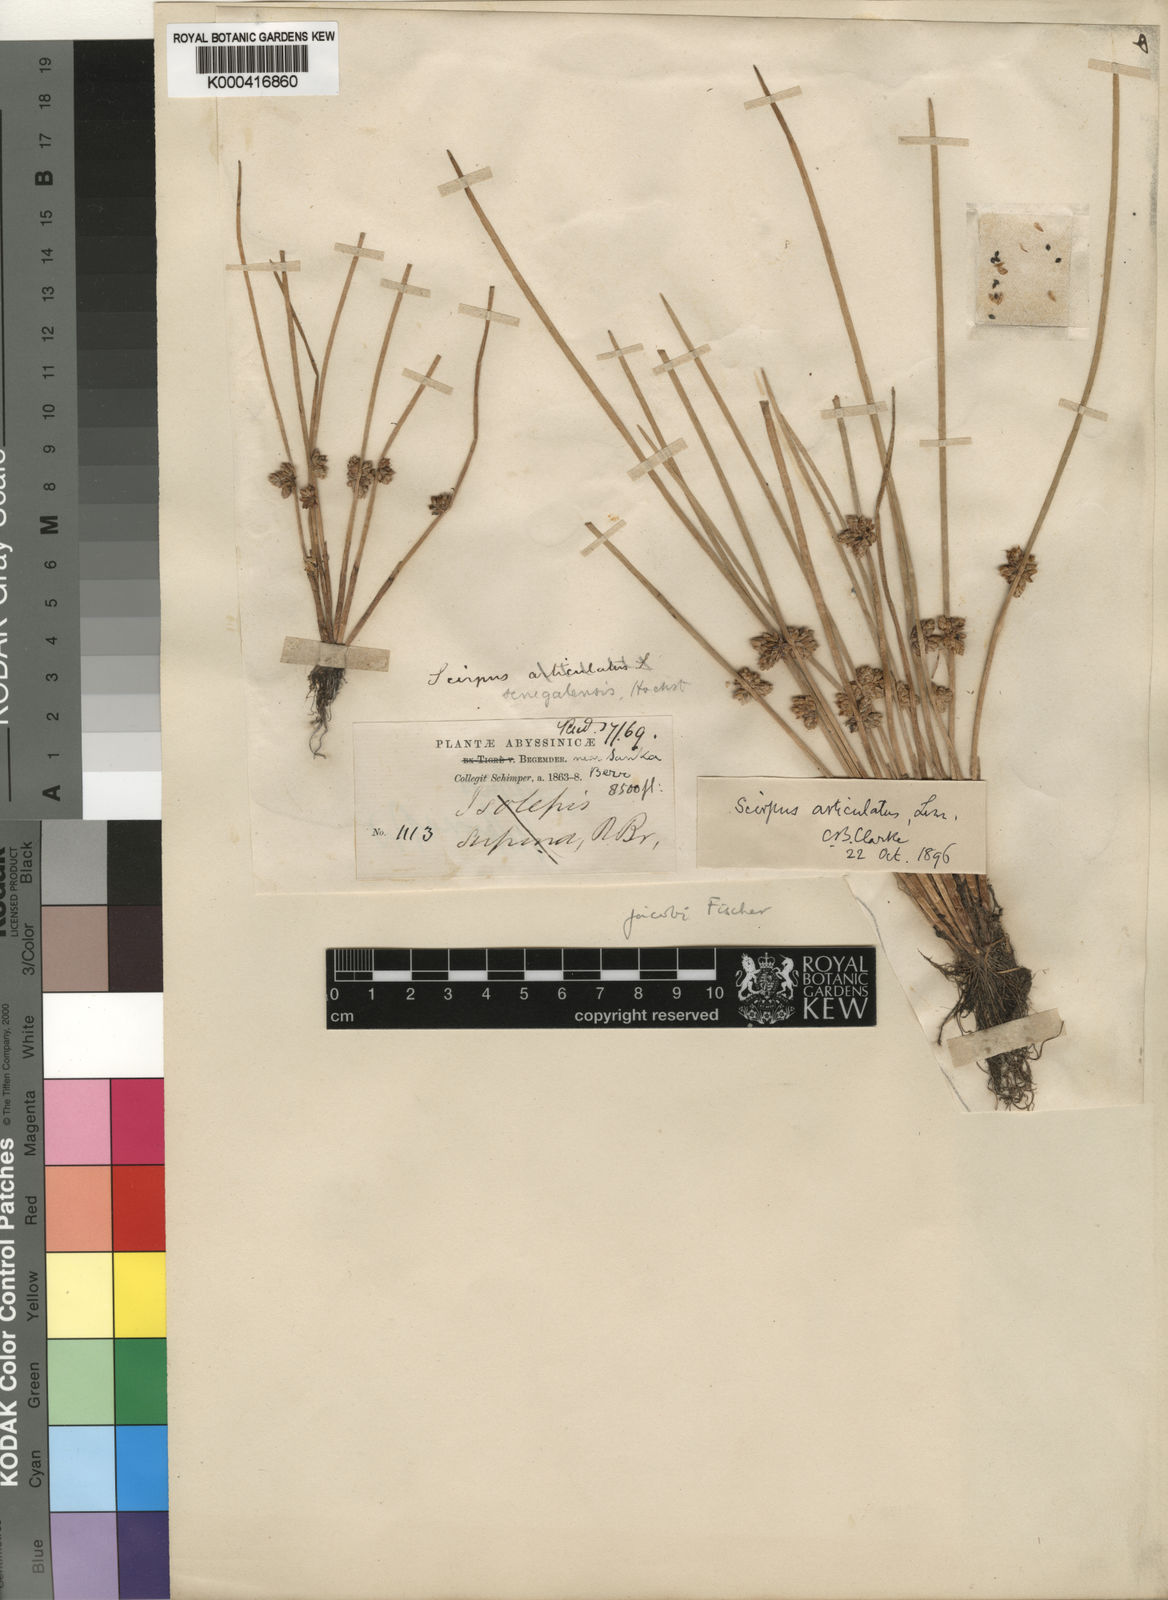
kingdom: Plantae
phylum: Tracheophyta
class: Liliopsida
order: Poales
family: Cyperaceae
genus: Schoenoplectiella
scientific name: Schoenoplectiella senegalensis
